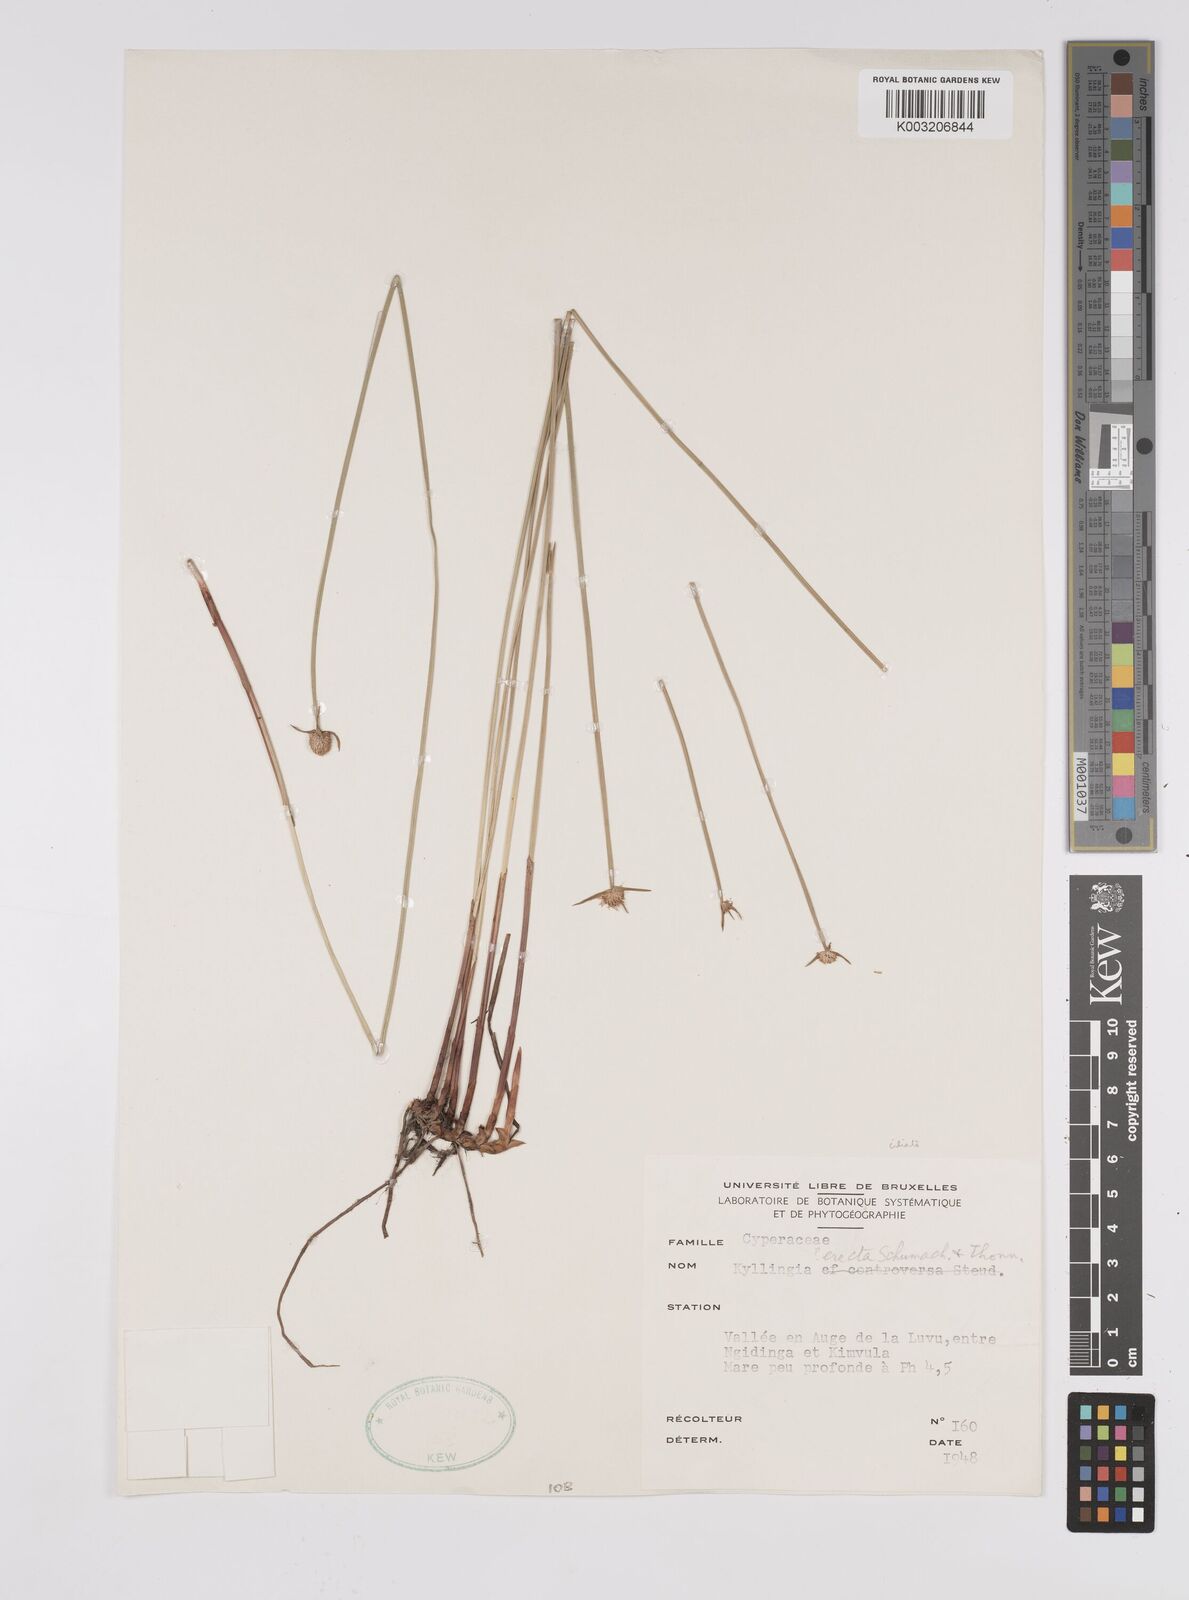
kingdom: Plantae
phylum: Tracheophyta
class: Liliopsida
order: Poales
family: Cyperaceae
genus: Cyperus
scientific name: Cyperus erectus
